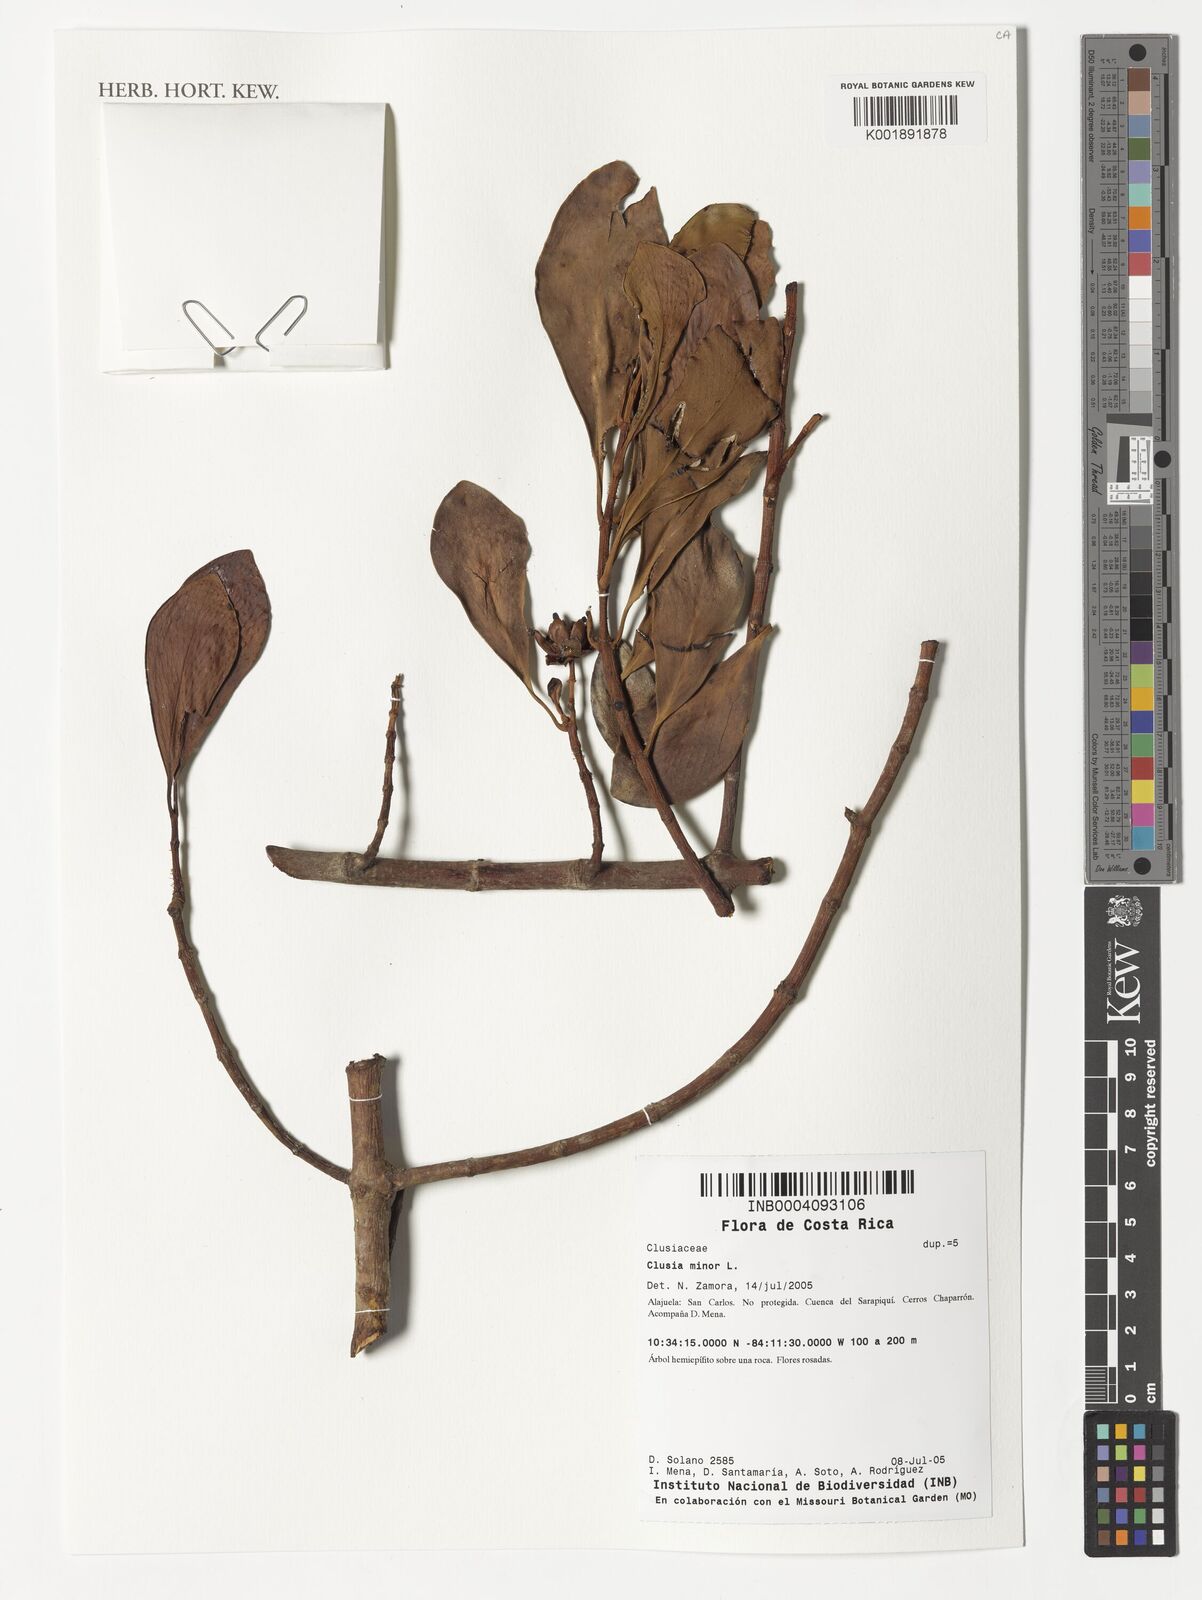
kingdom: Plantae
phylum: Tracheophyta
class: Magnoliopsida
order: Malpighiales
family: Clusiaceae
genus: Clusia
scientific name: Clusia minor
